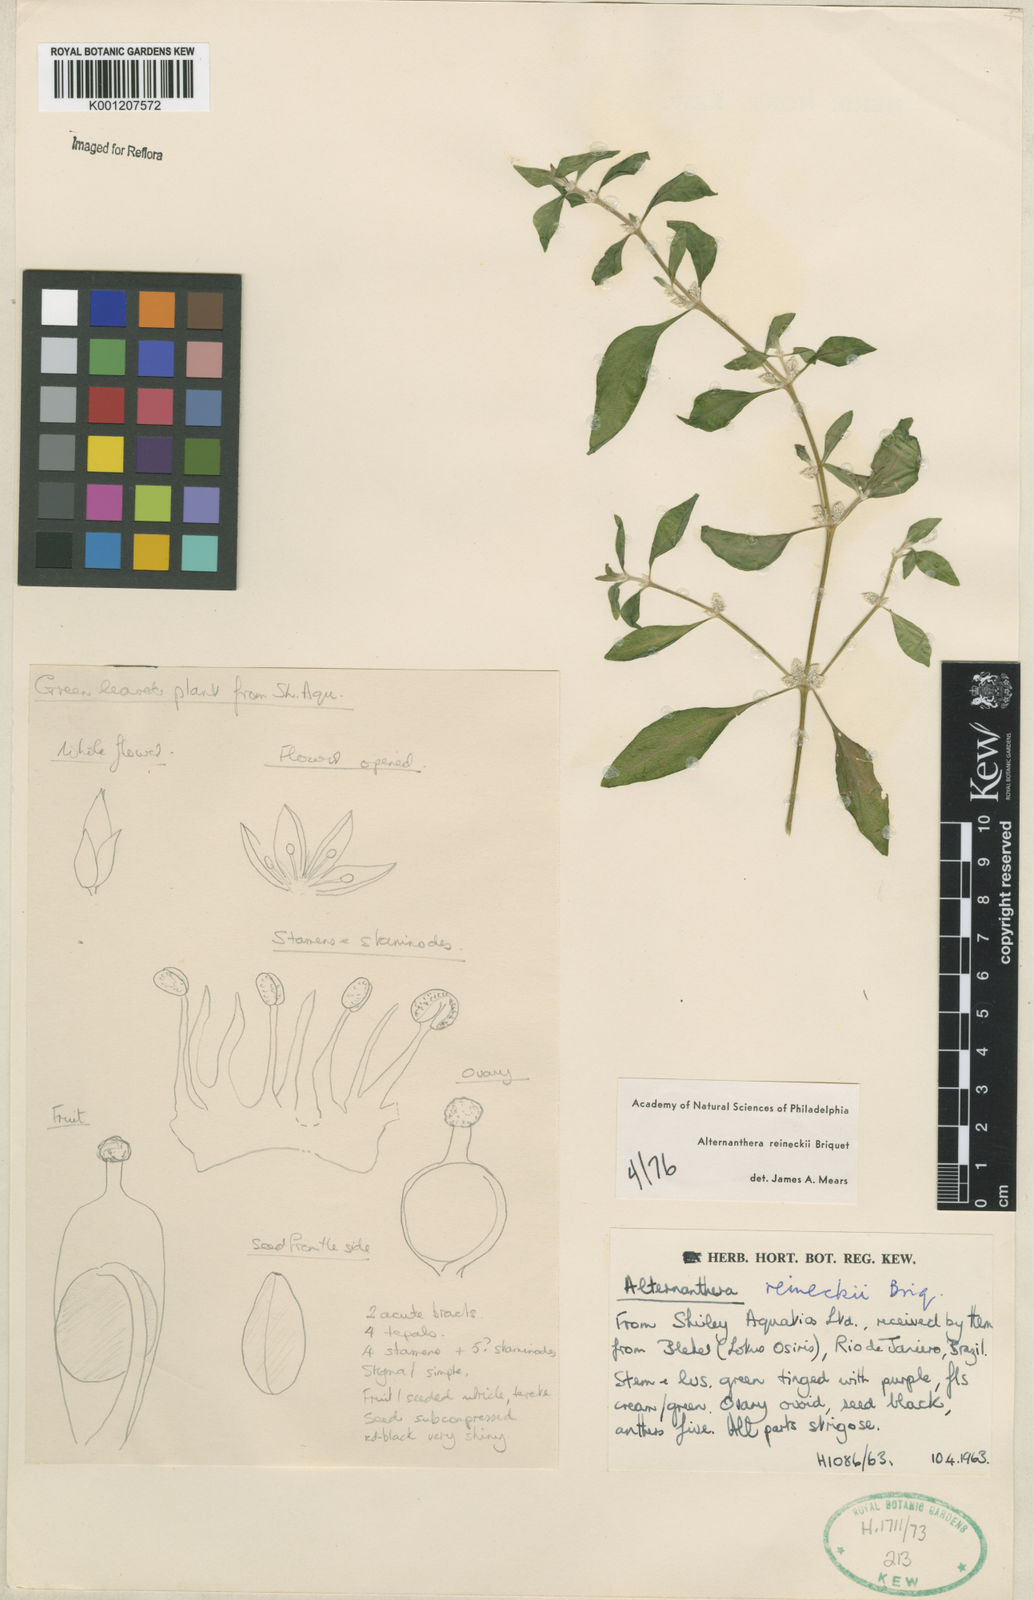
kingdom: Plantae
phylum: Tracheophyta
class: Magnoliopsida
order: Caryophyllales
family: Amaranthaceae
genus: Alternanthera
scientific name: Alternanthera reineckii
